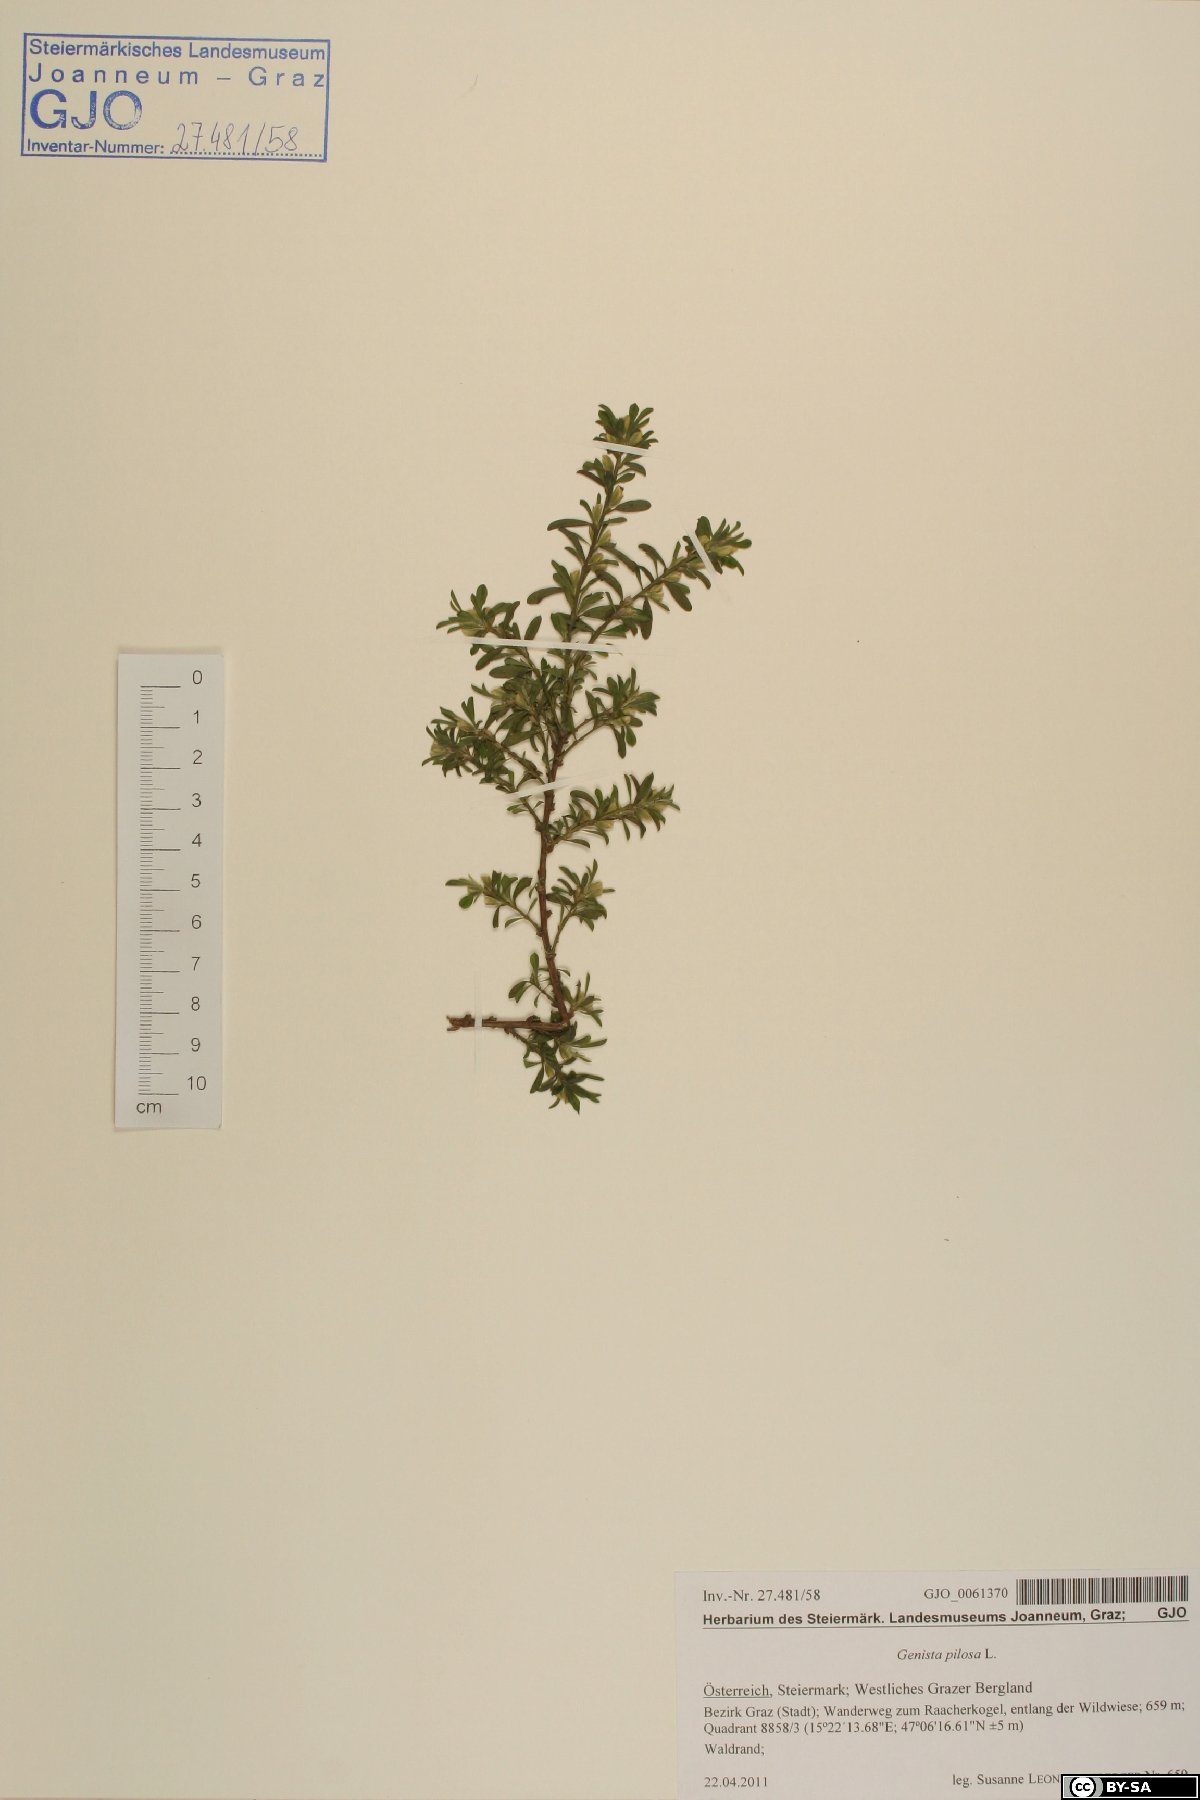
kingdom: Plantae
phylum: Tracheophyta
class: Magnoliopsida
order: Fabales
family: Fabaceae
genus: Genista
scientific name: Genista pilosa
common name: Hairy greenweed
